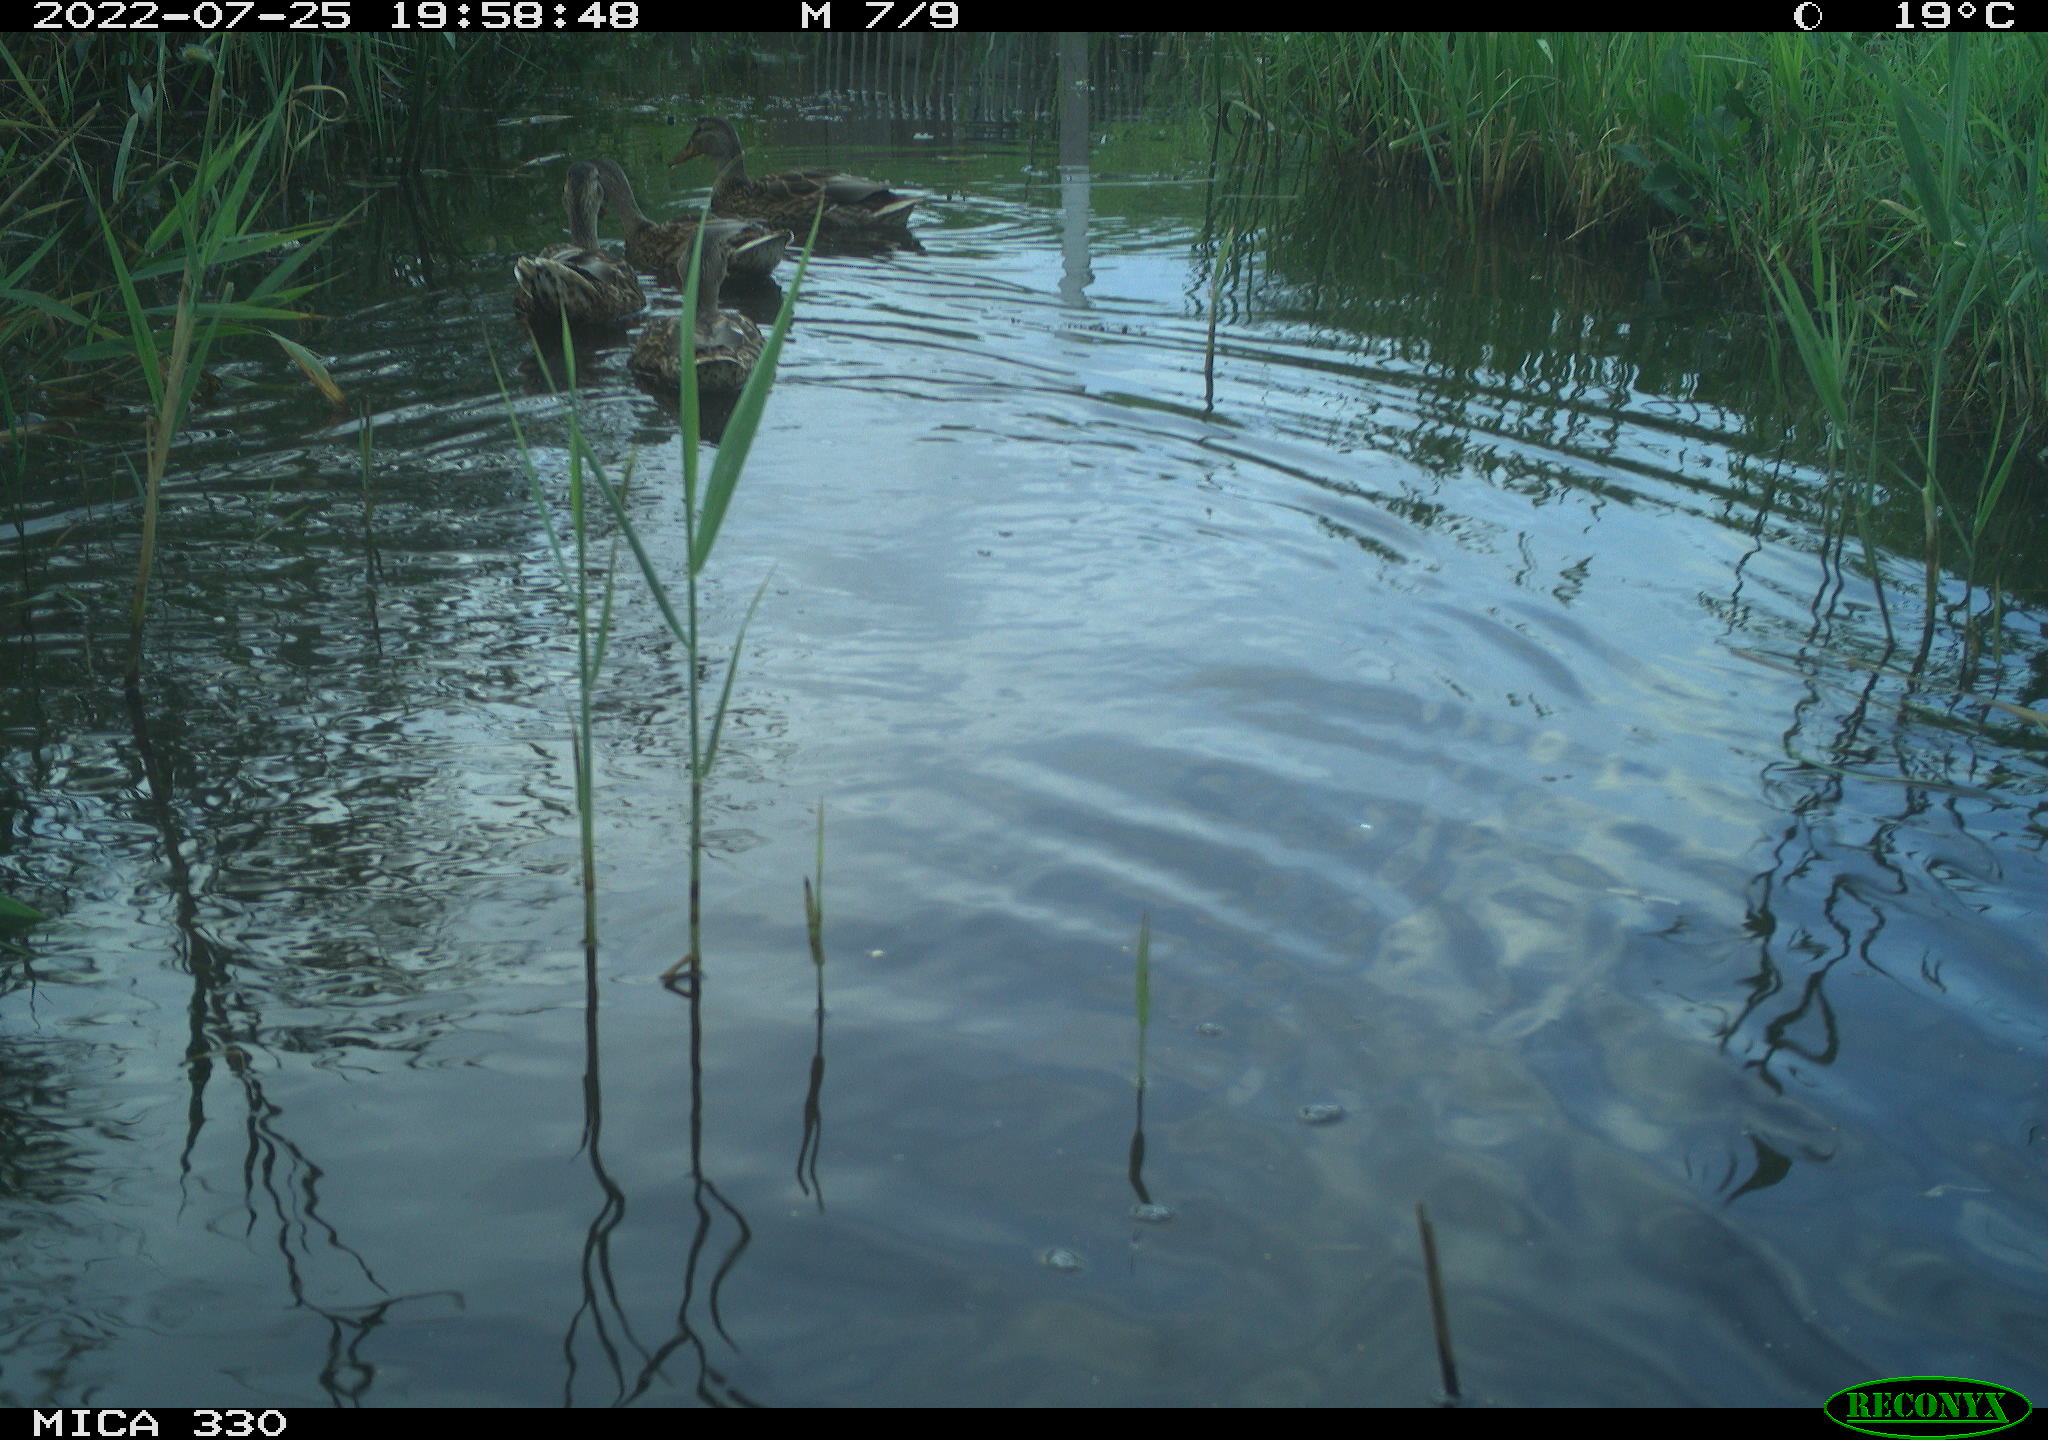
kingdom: Animalia
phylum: Chordata
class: Aves
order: Anseriformes
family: Anatidae
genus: Mareca
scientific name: Mareca strepera
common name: Gadwall
